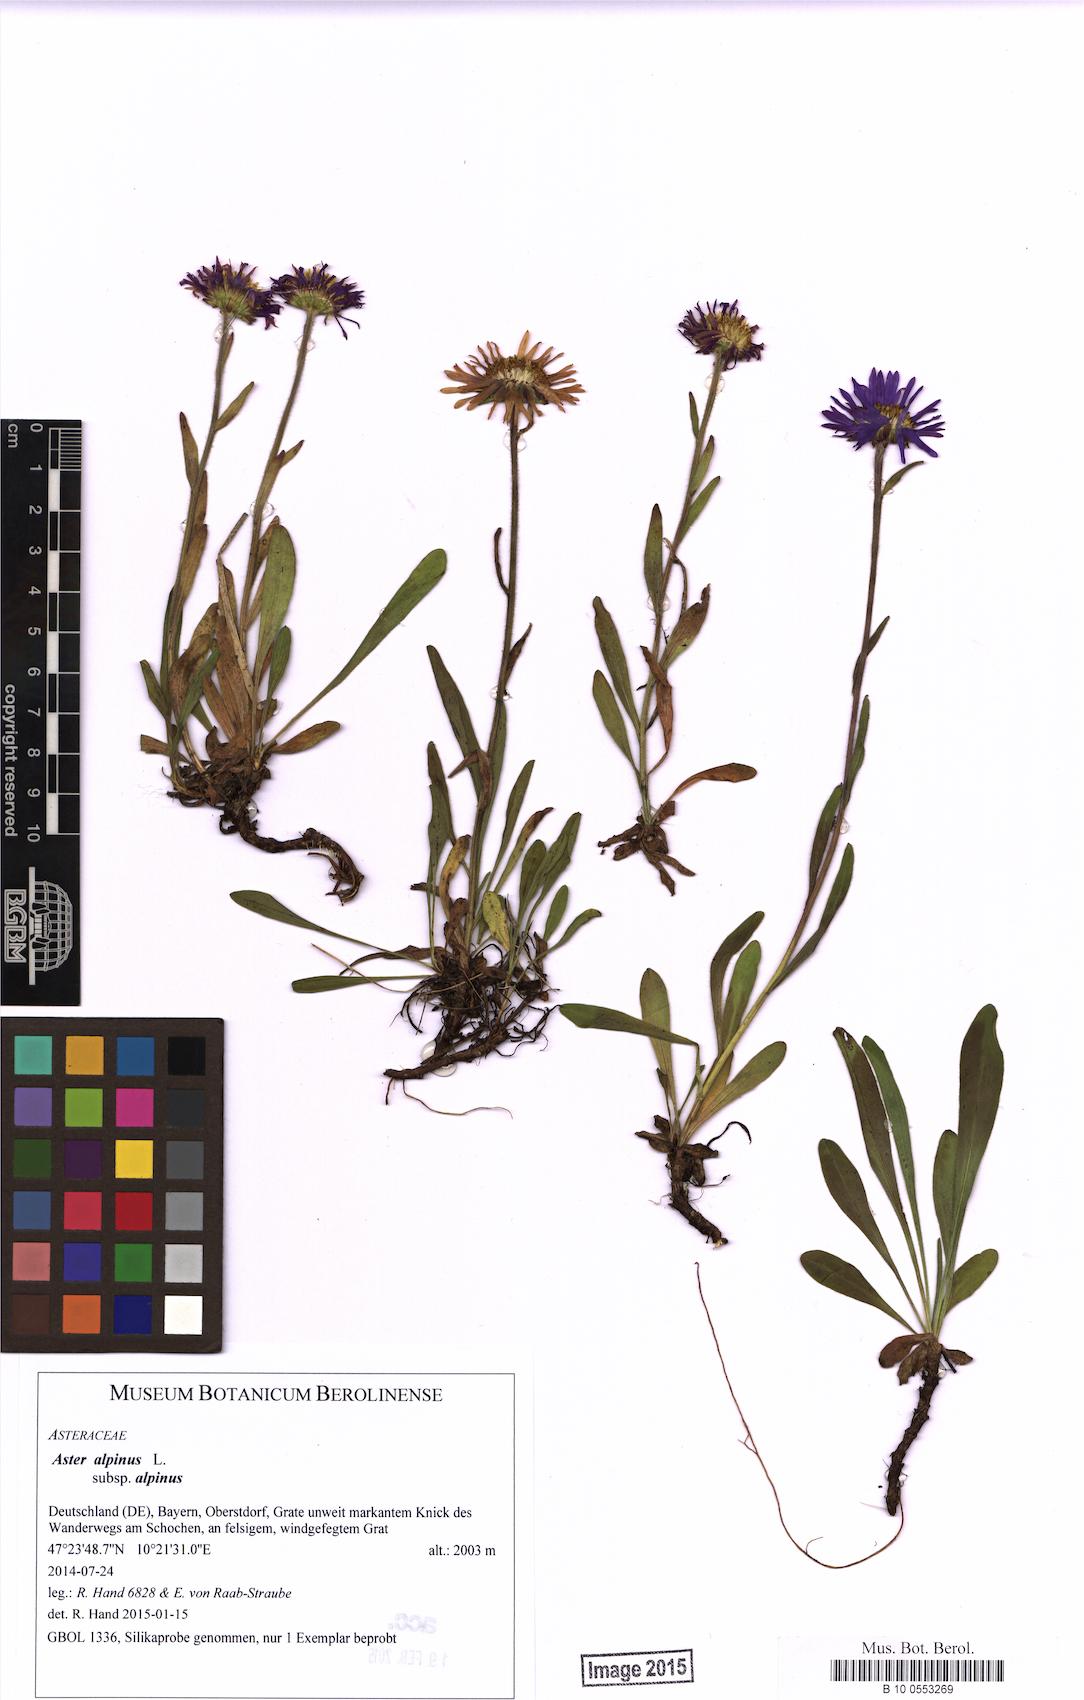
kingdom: Plantae
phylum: Tracheophyta
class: Magnoliopsida
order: Asterales
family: Asteraceae
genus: Aster
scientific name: Aster alpinus
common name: Alpine aster
